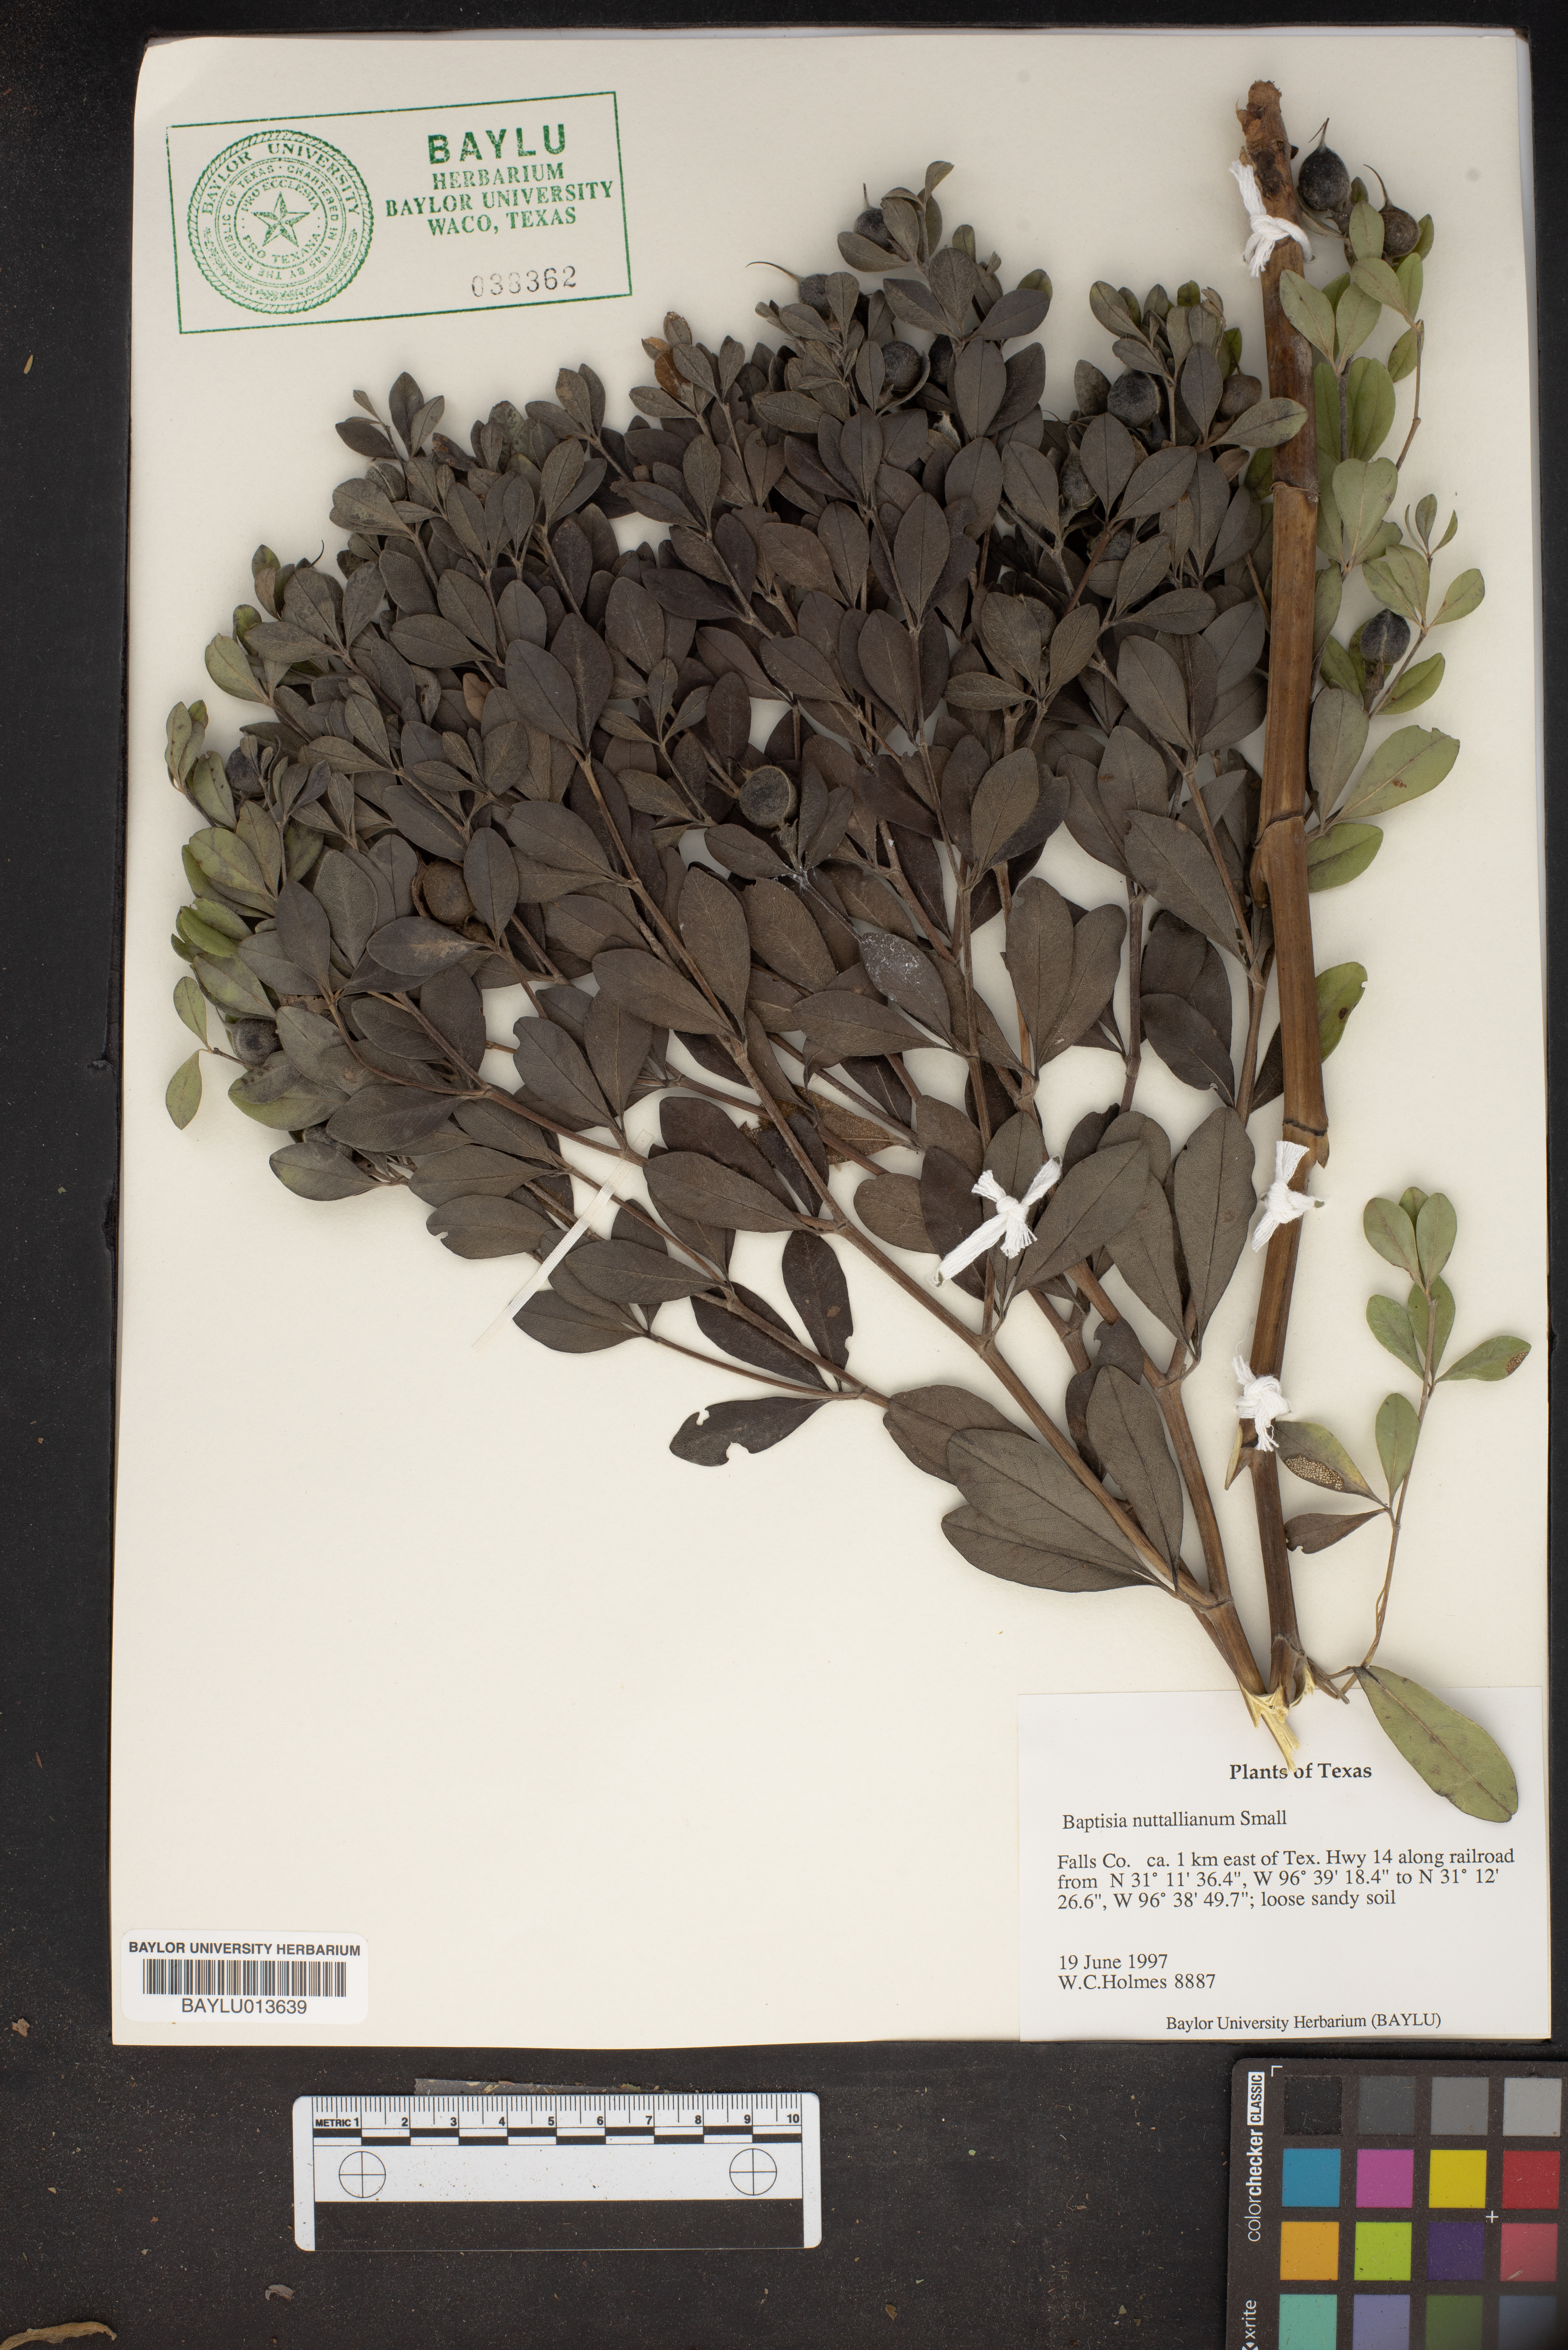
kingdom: Plantae
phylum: Tracheophyta
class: Magnoliopsida
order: Fabales
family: Fabaceae
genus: Baptisia
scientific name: Baptisia nuttalliana
